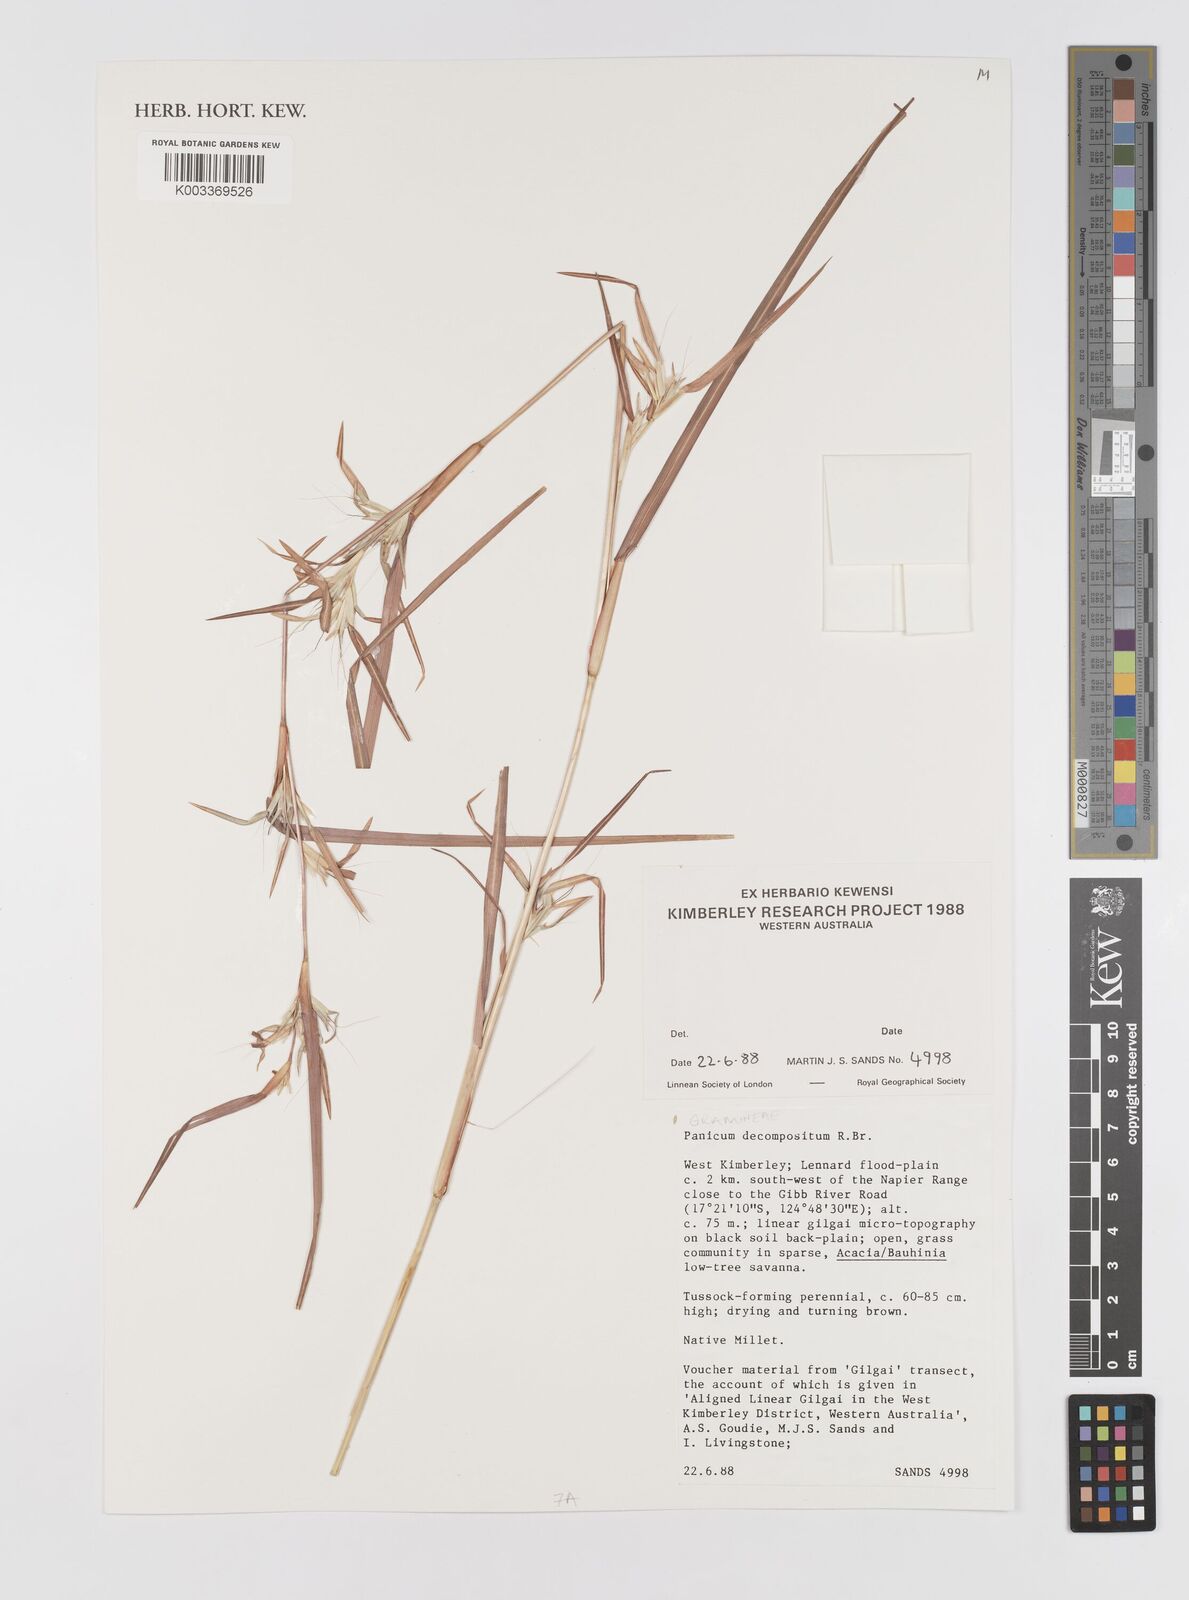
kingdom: Plantae
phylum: Tracheophyta
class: Liliopsida
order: Poales
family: Poaceae
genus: Panicum
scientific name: Panicum decompositum
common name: Australian millet
